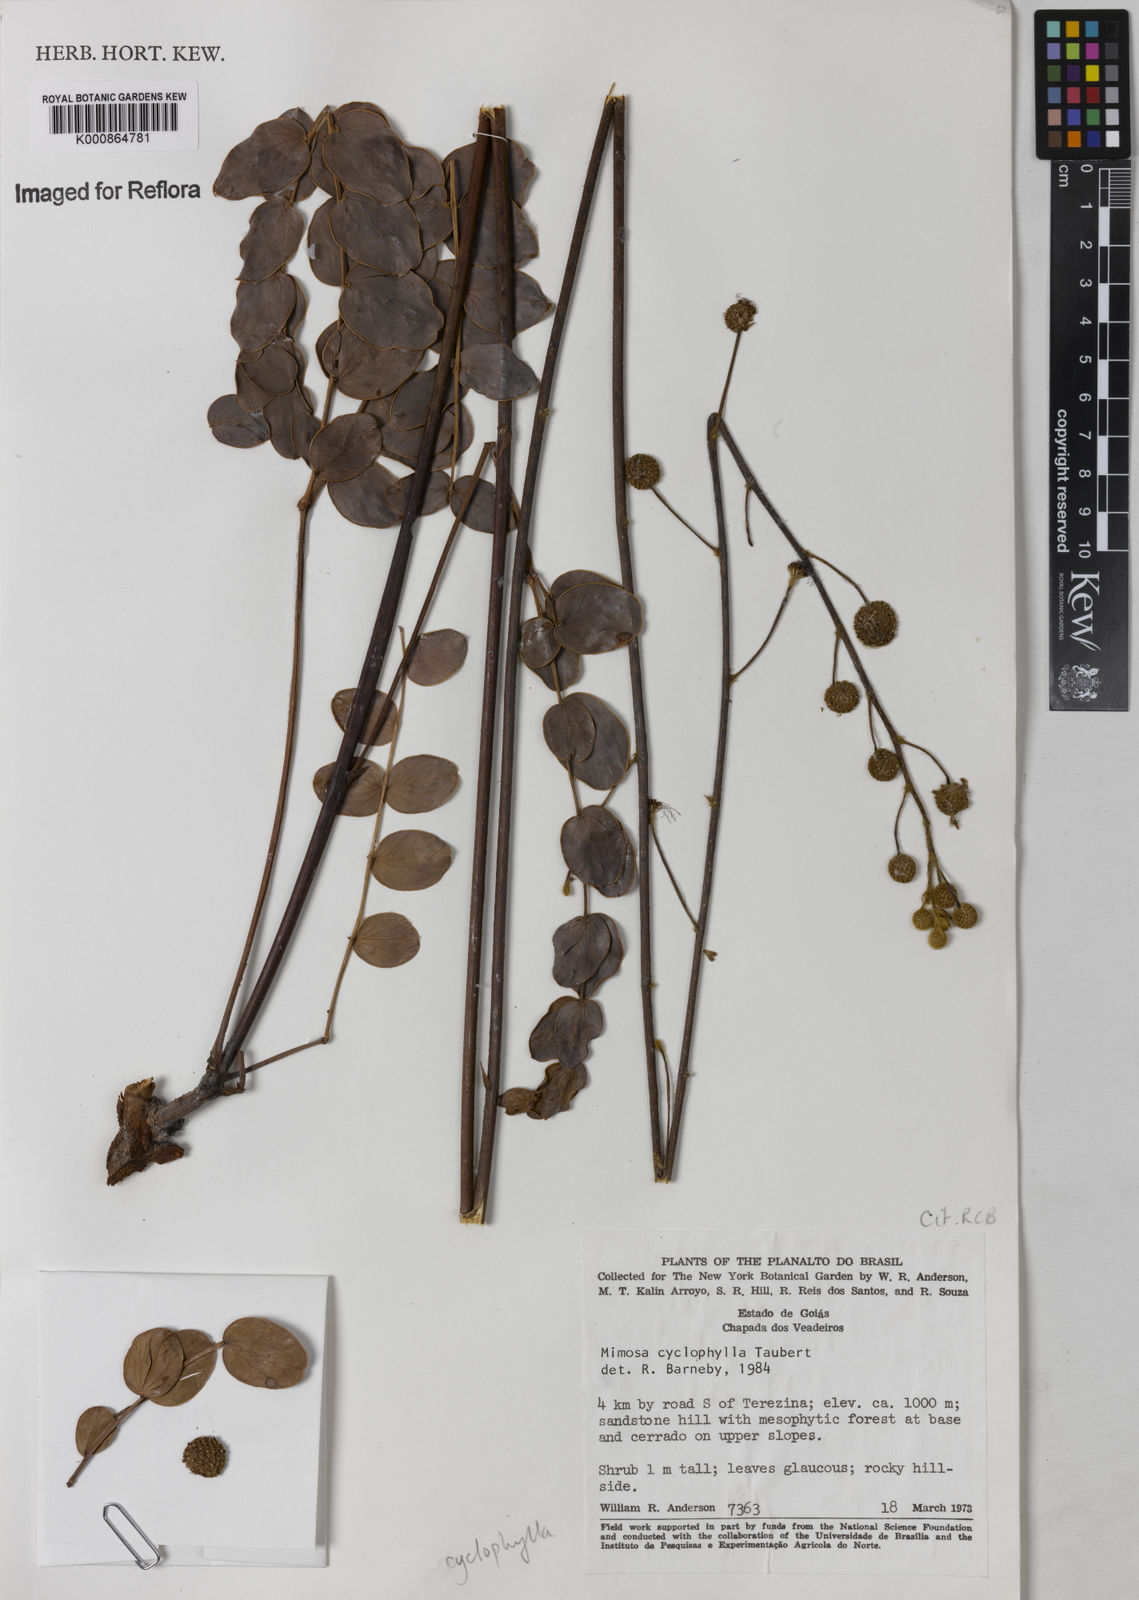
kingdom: Plantae
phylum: Tracheophyta
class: Magnoliopsida
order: Fabales
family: Fabaceae
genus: Mimosa
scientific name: Mimosa cyclophylla
